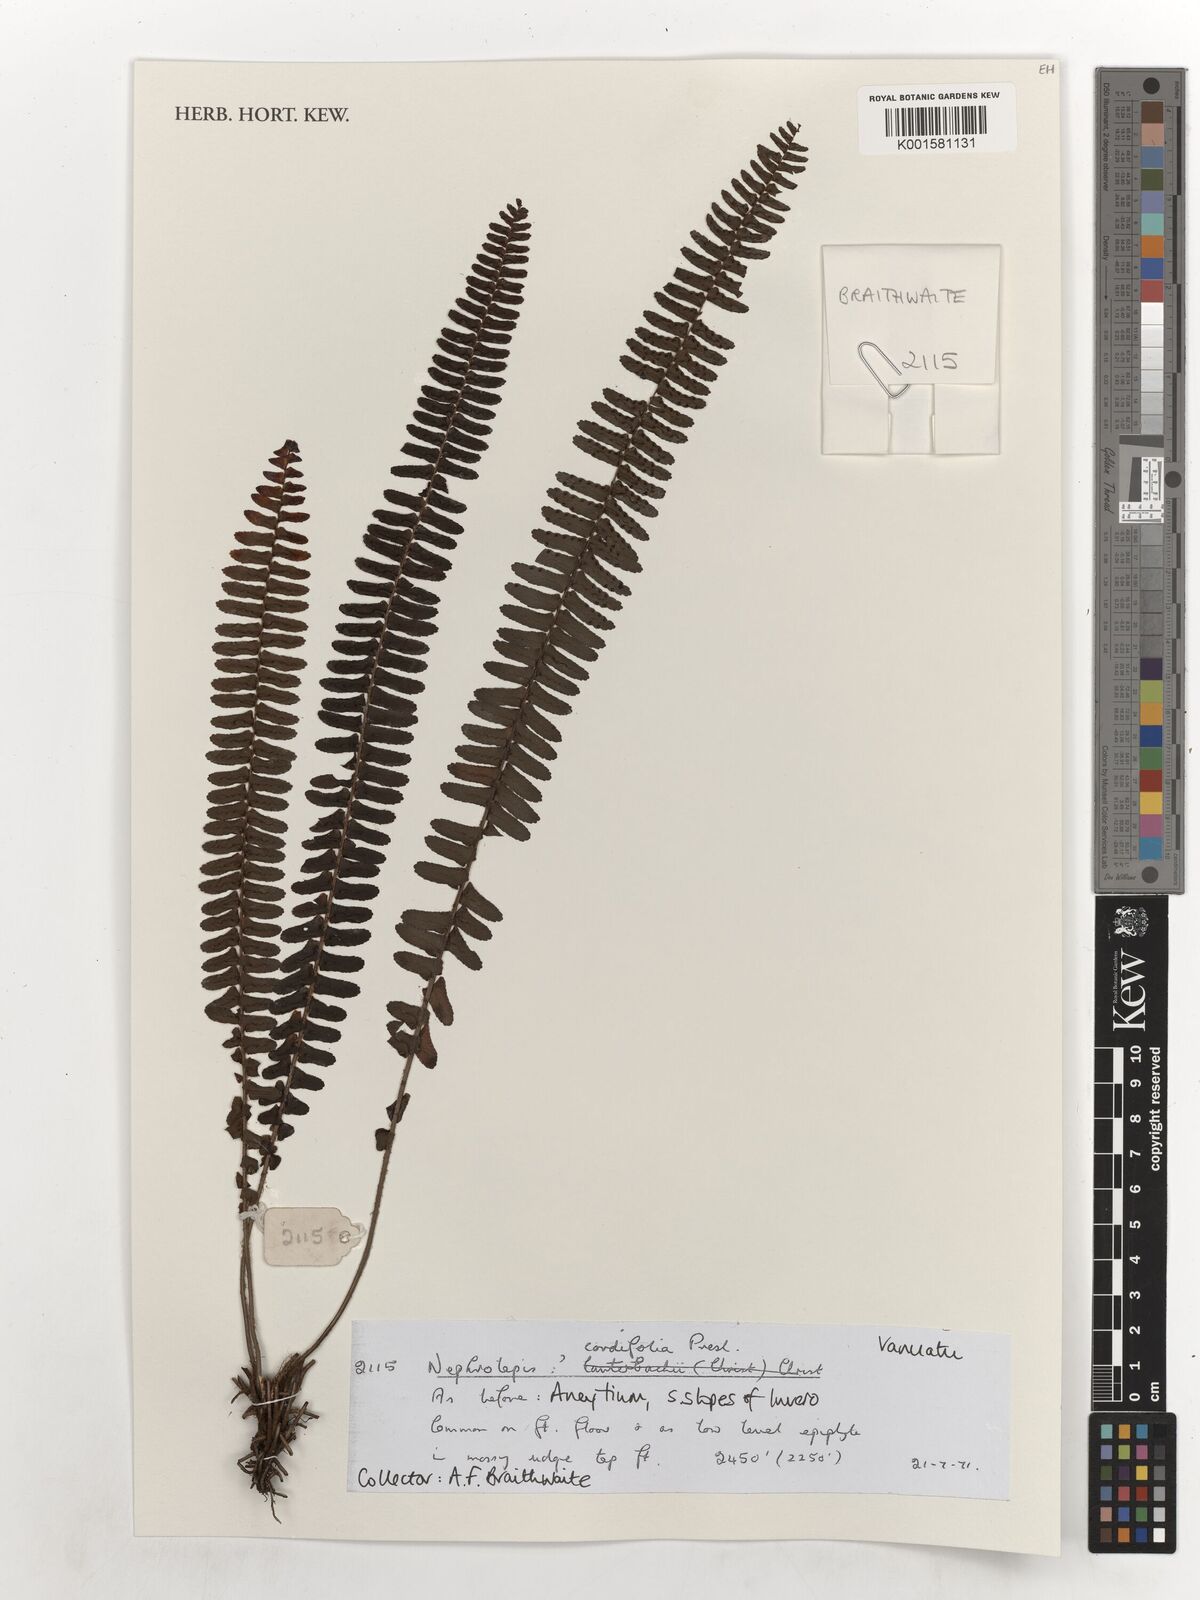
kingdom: Plantae
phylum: Tracheophyta
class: Polypodiopsida
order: Polypodiales
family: Nephrolepidaceae
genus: Nephrolepis
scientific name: Nephrolepis cordifolia
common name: Narrow swordfern
